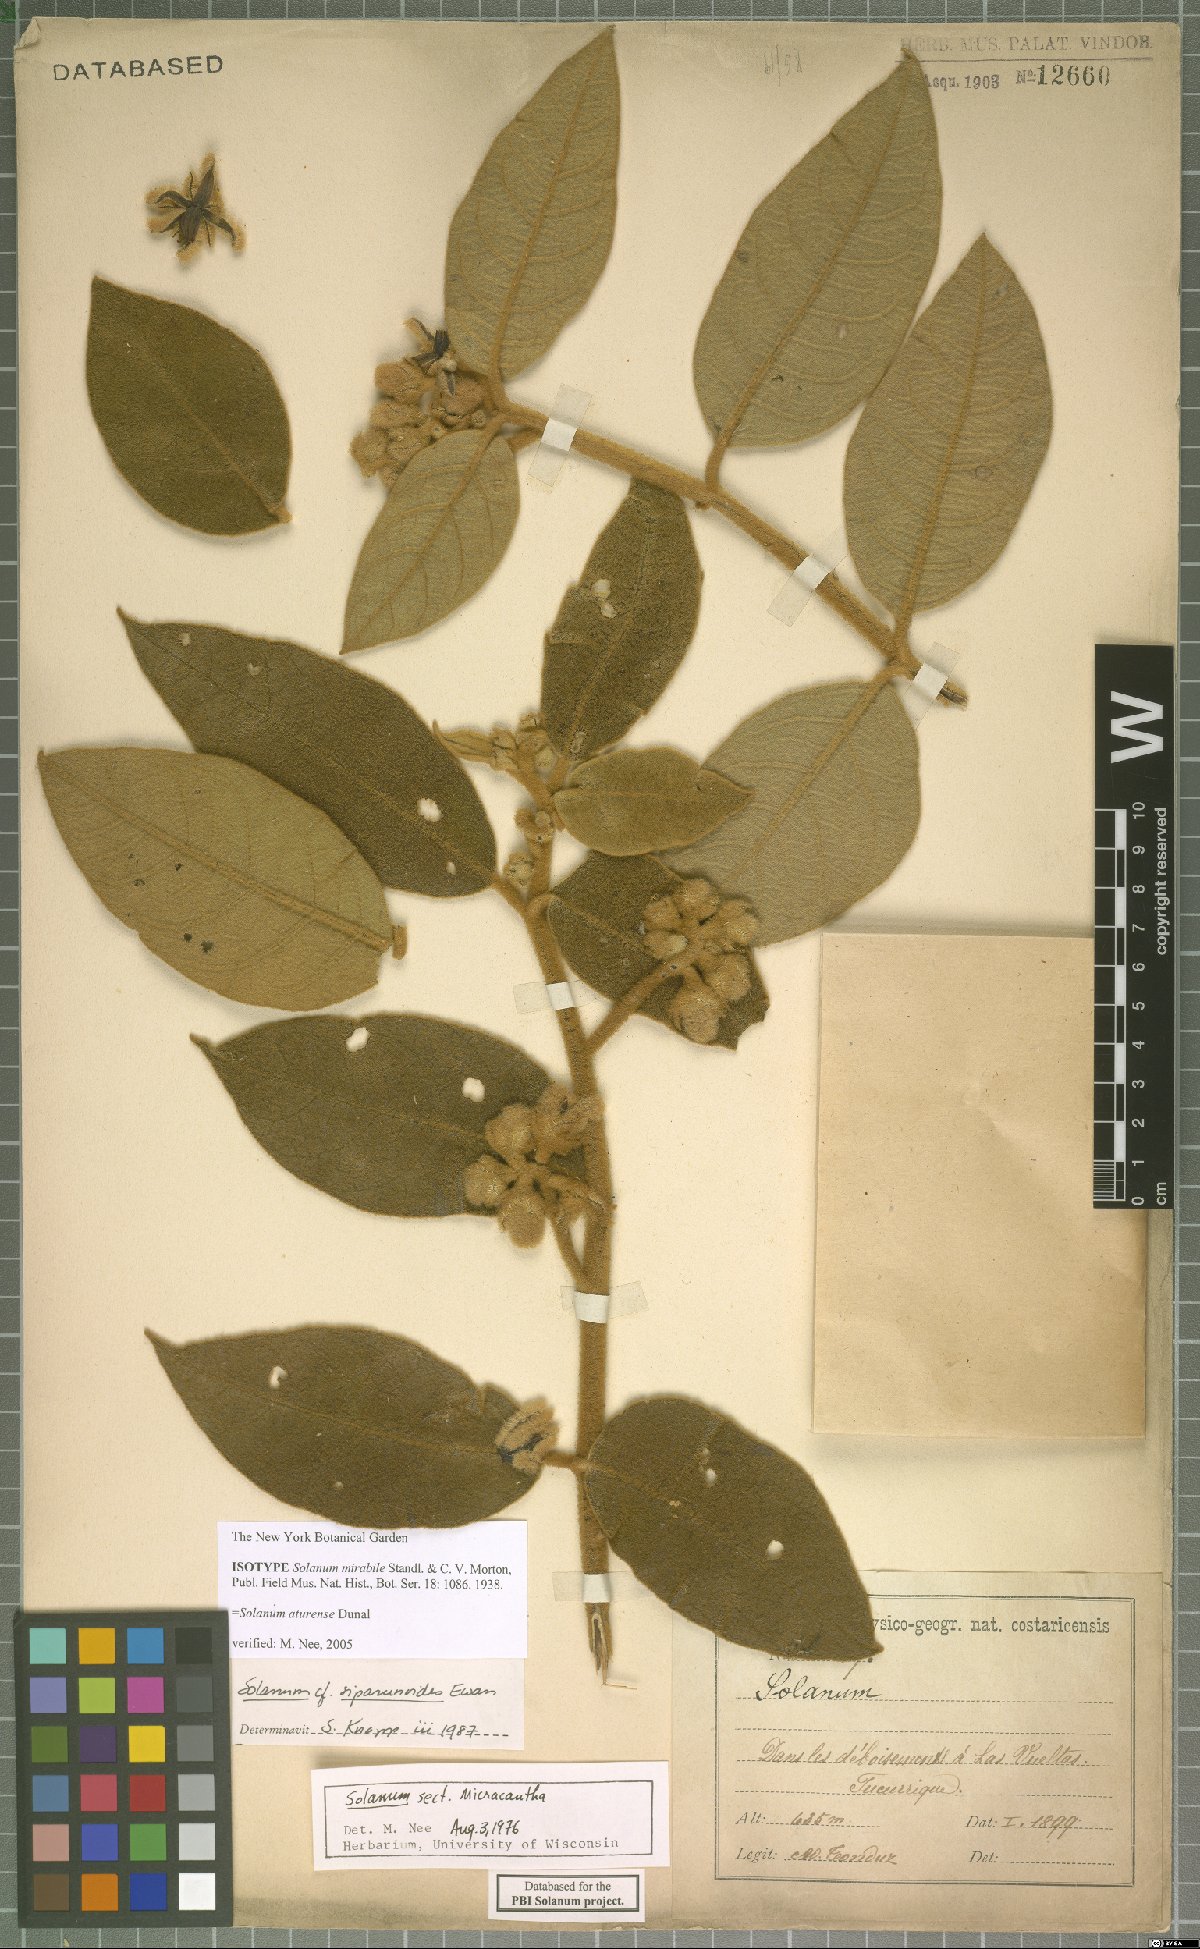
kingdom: Plantae
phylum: Tracheophyta
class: Magnoliopsida
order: Solanales
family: Solanaceae
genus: Solanum
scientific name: Solanum aturense
